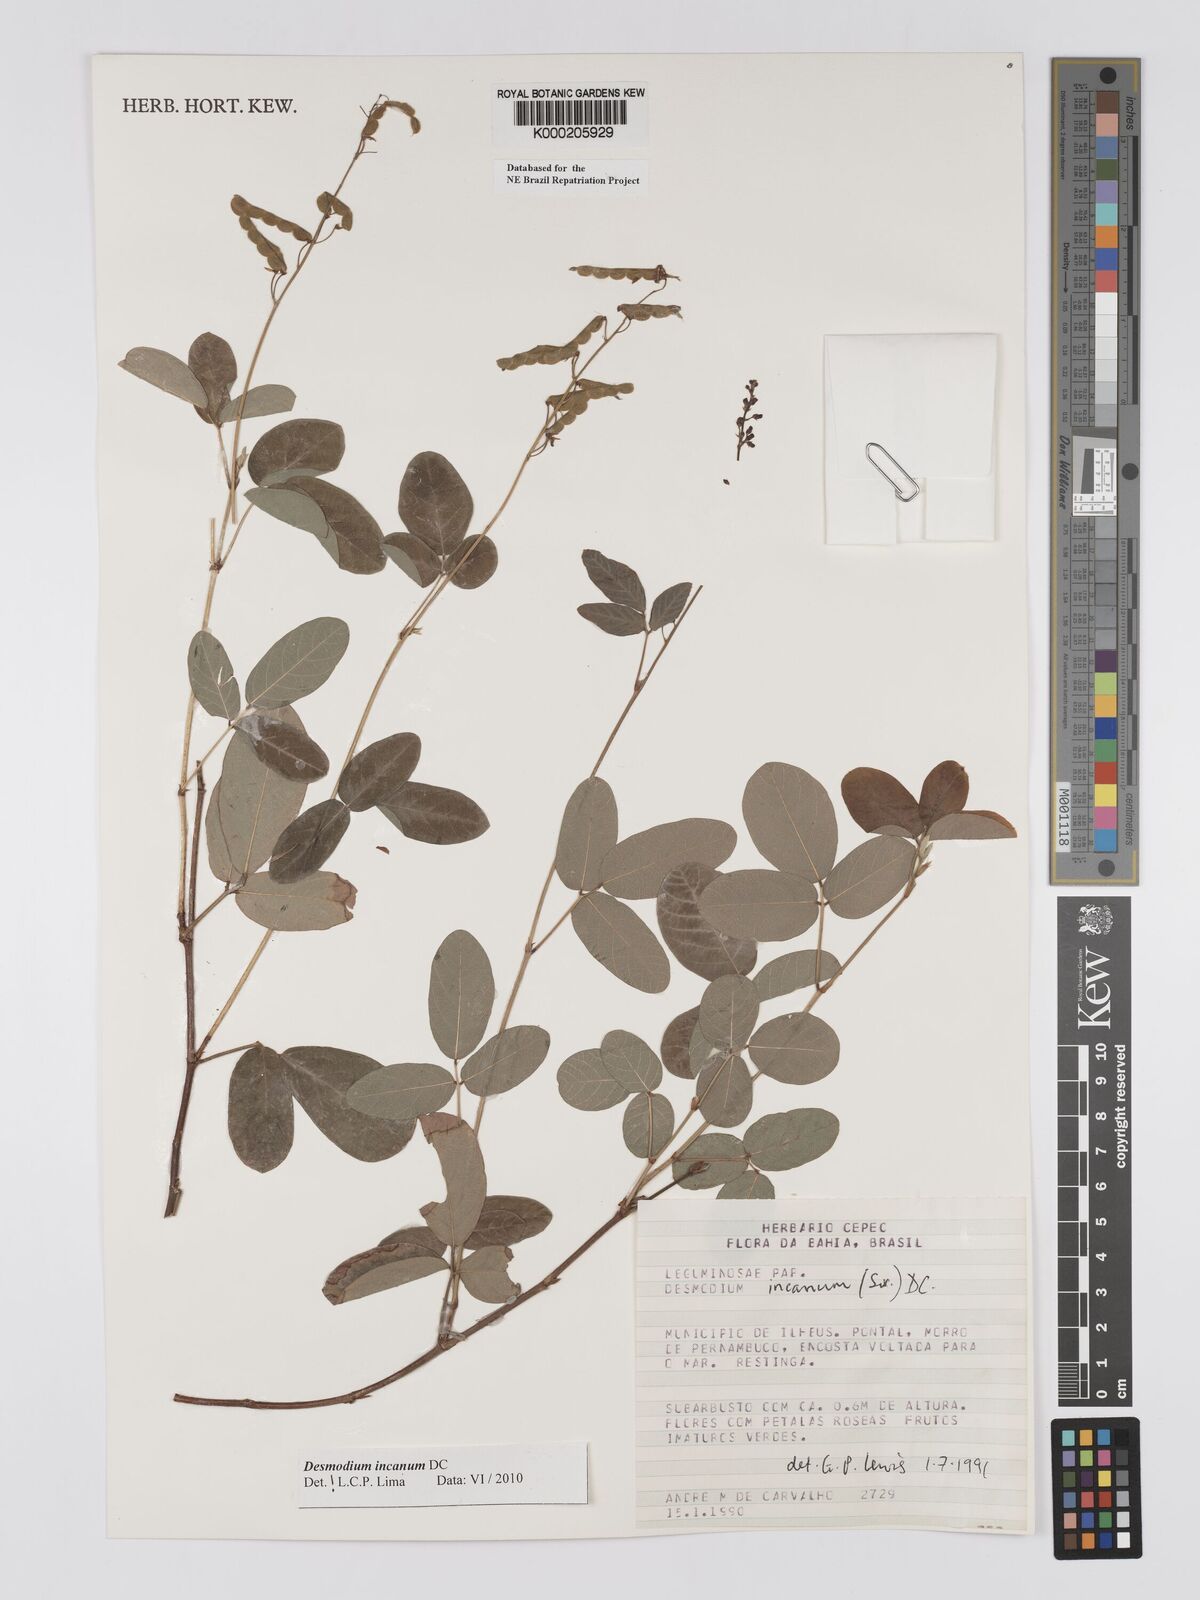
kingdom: Plantae
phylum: Tracheophyta
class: Magnoliopsida
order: Fabales
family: Fabaceae
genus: Desmodium
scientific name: Desmodium incanum
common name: Tickclover
